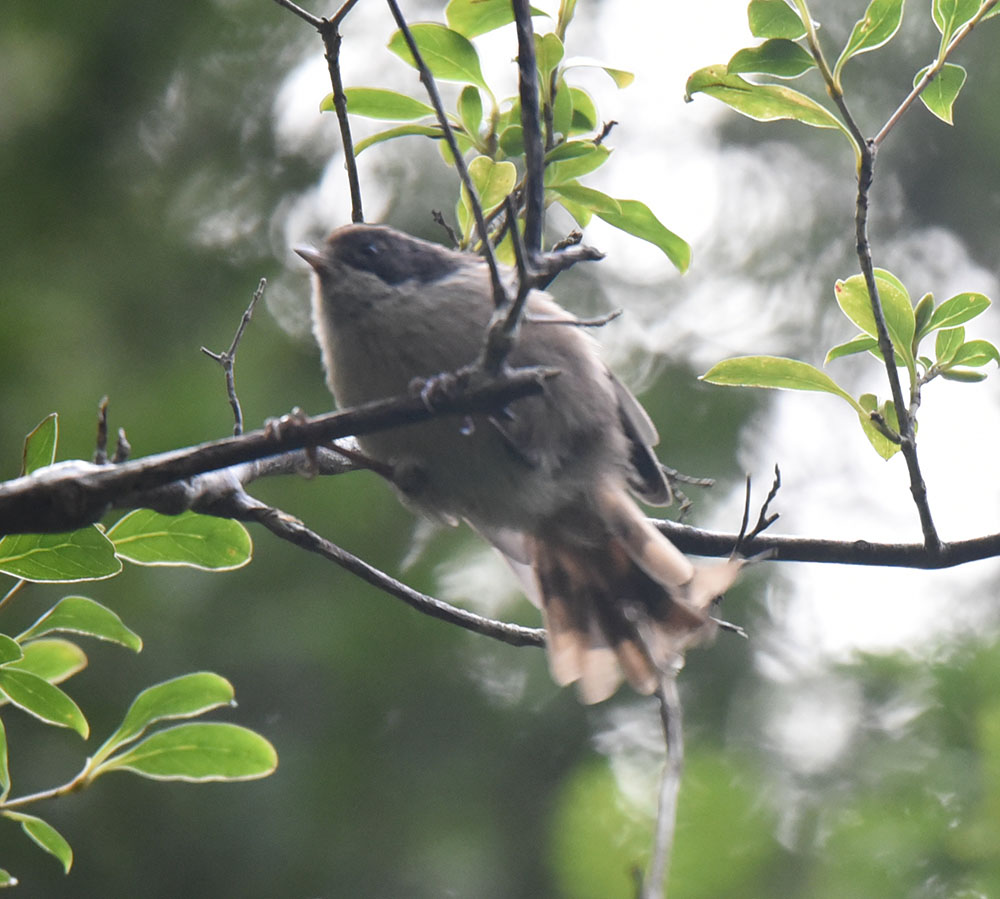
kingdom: Animalia
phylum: Chordata
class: Aves
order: Passeriformes
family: Acanthizidae
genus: Finschia
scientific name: Finschia novaeseelandiae
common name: Pipipi
